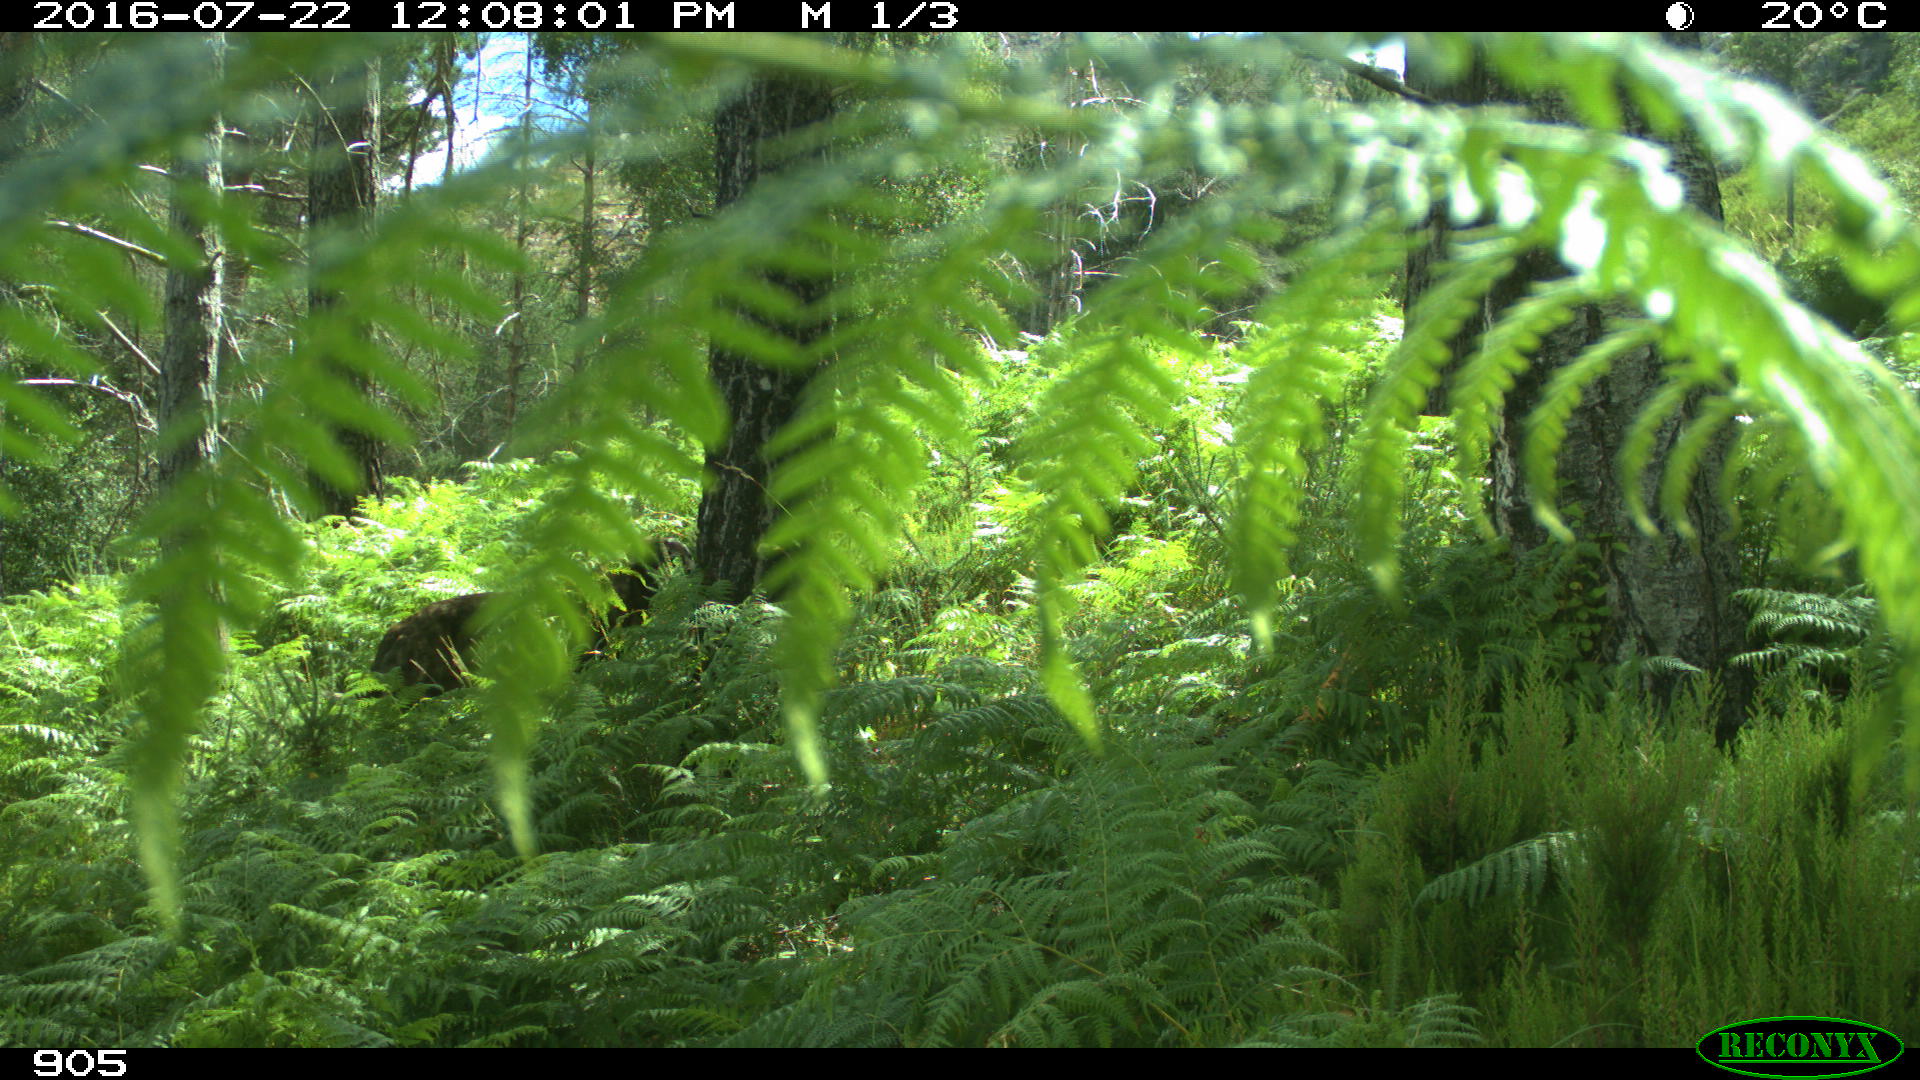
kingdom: Animalia
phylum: Chordata
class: Mammalia
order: Carnivora
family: Canidae
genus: Canis
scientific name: Canis lupus
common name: Gray wolf
